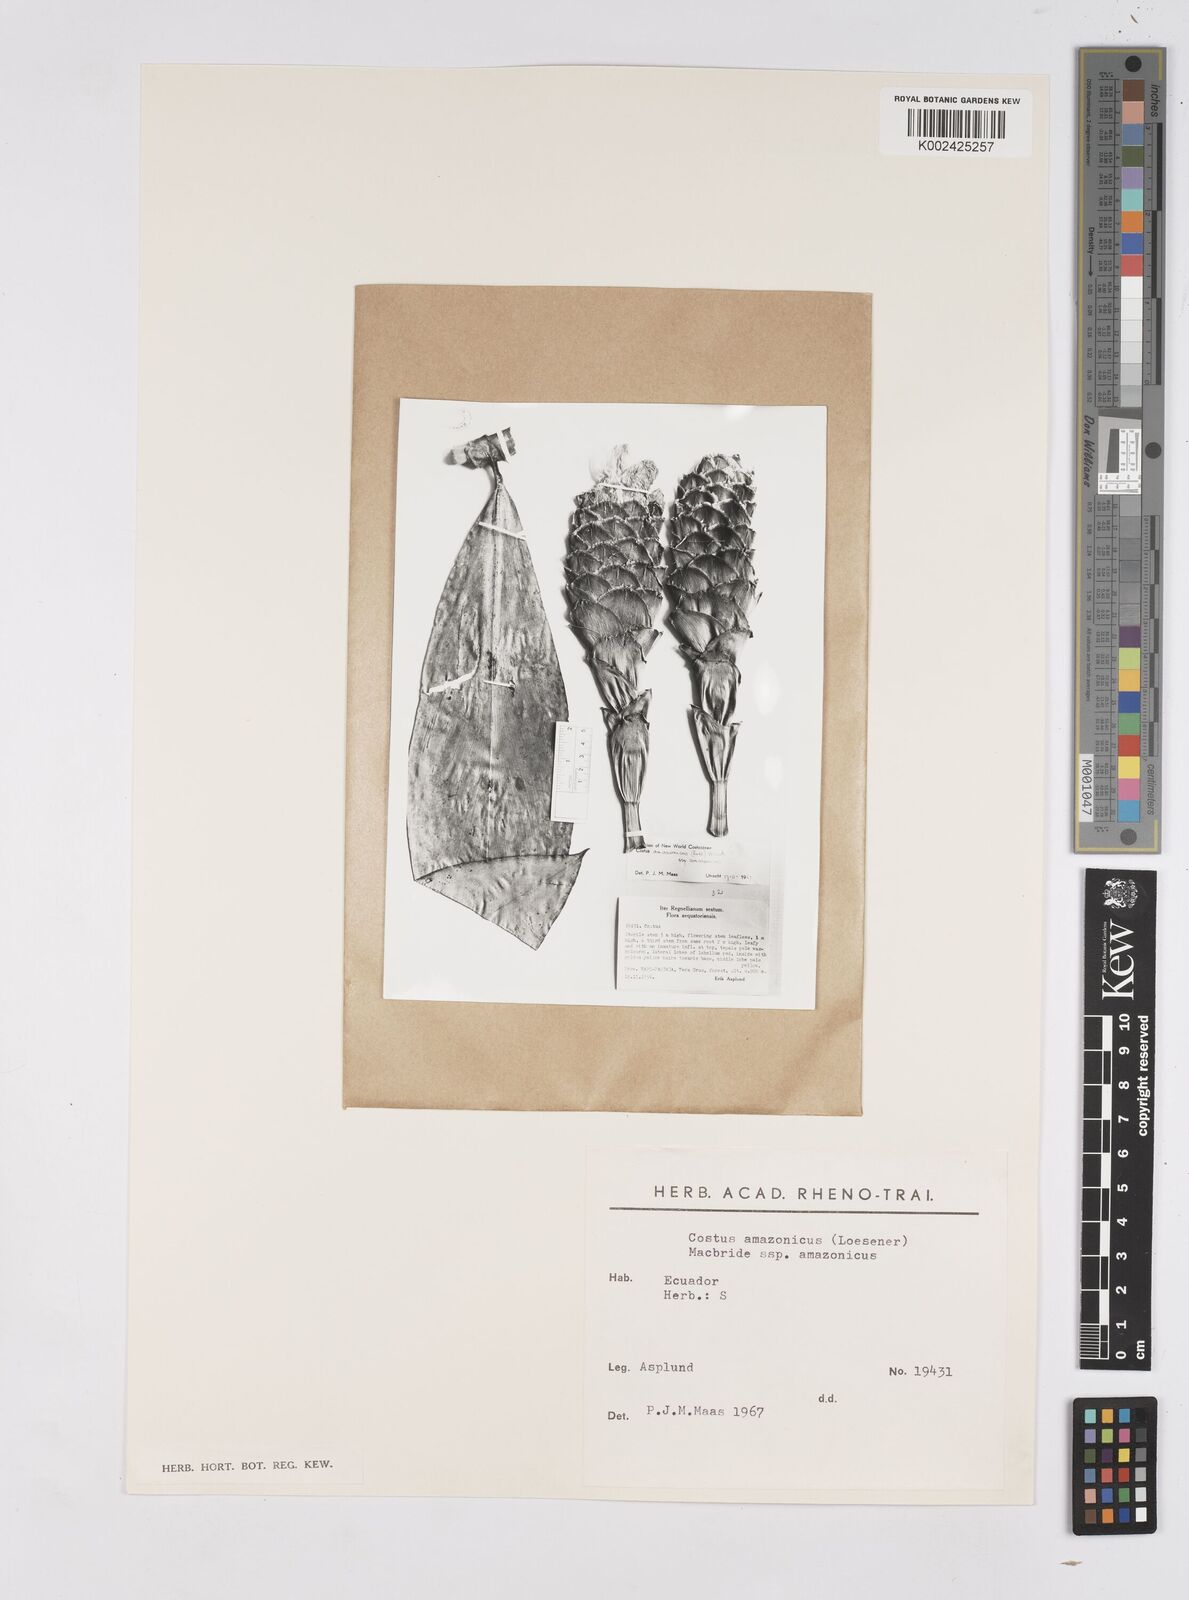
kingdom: Plantae
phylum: Tracheophyta
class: Liliopsida
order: Zingiberales
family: Costaceae
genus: Costus
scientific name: Costus amazonicus
